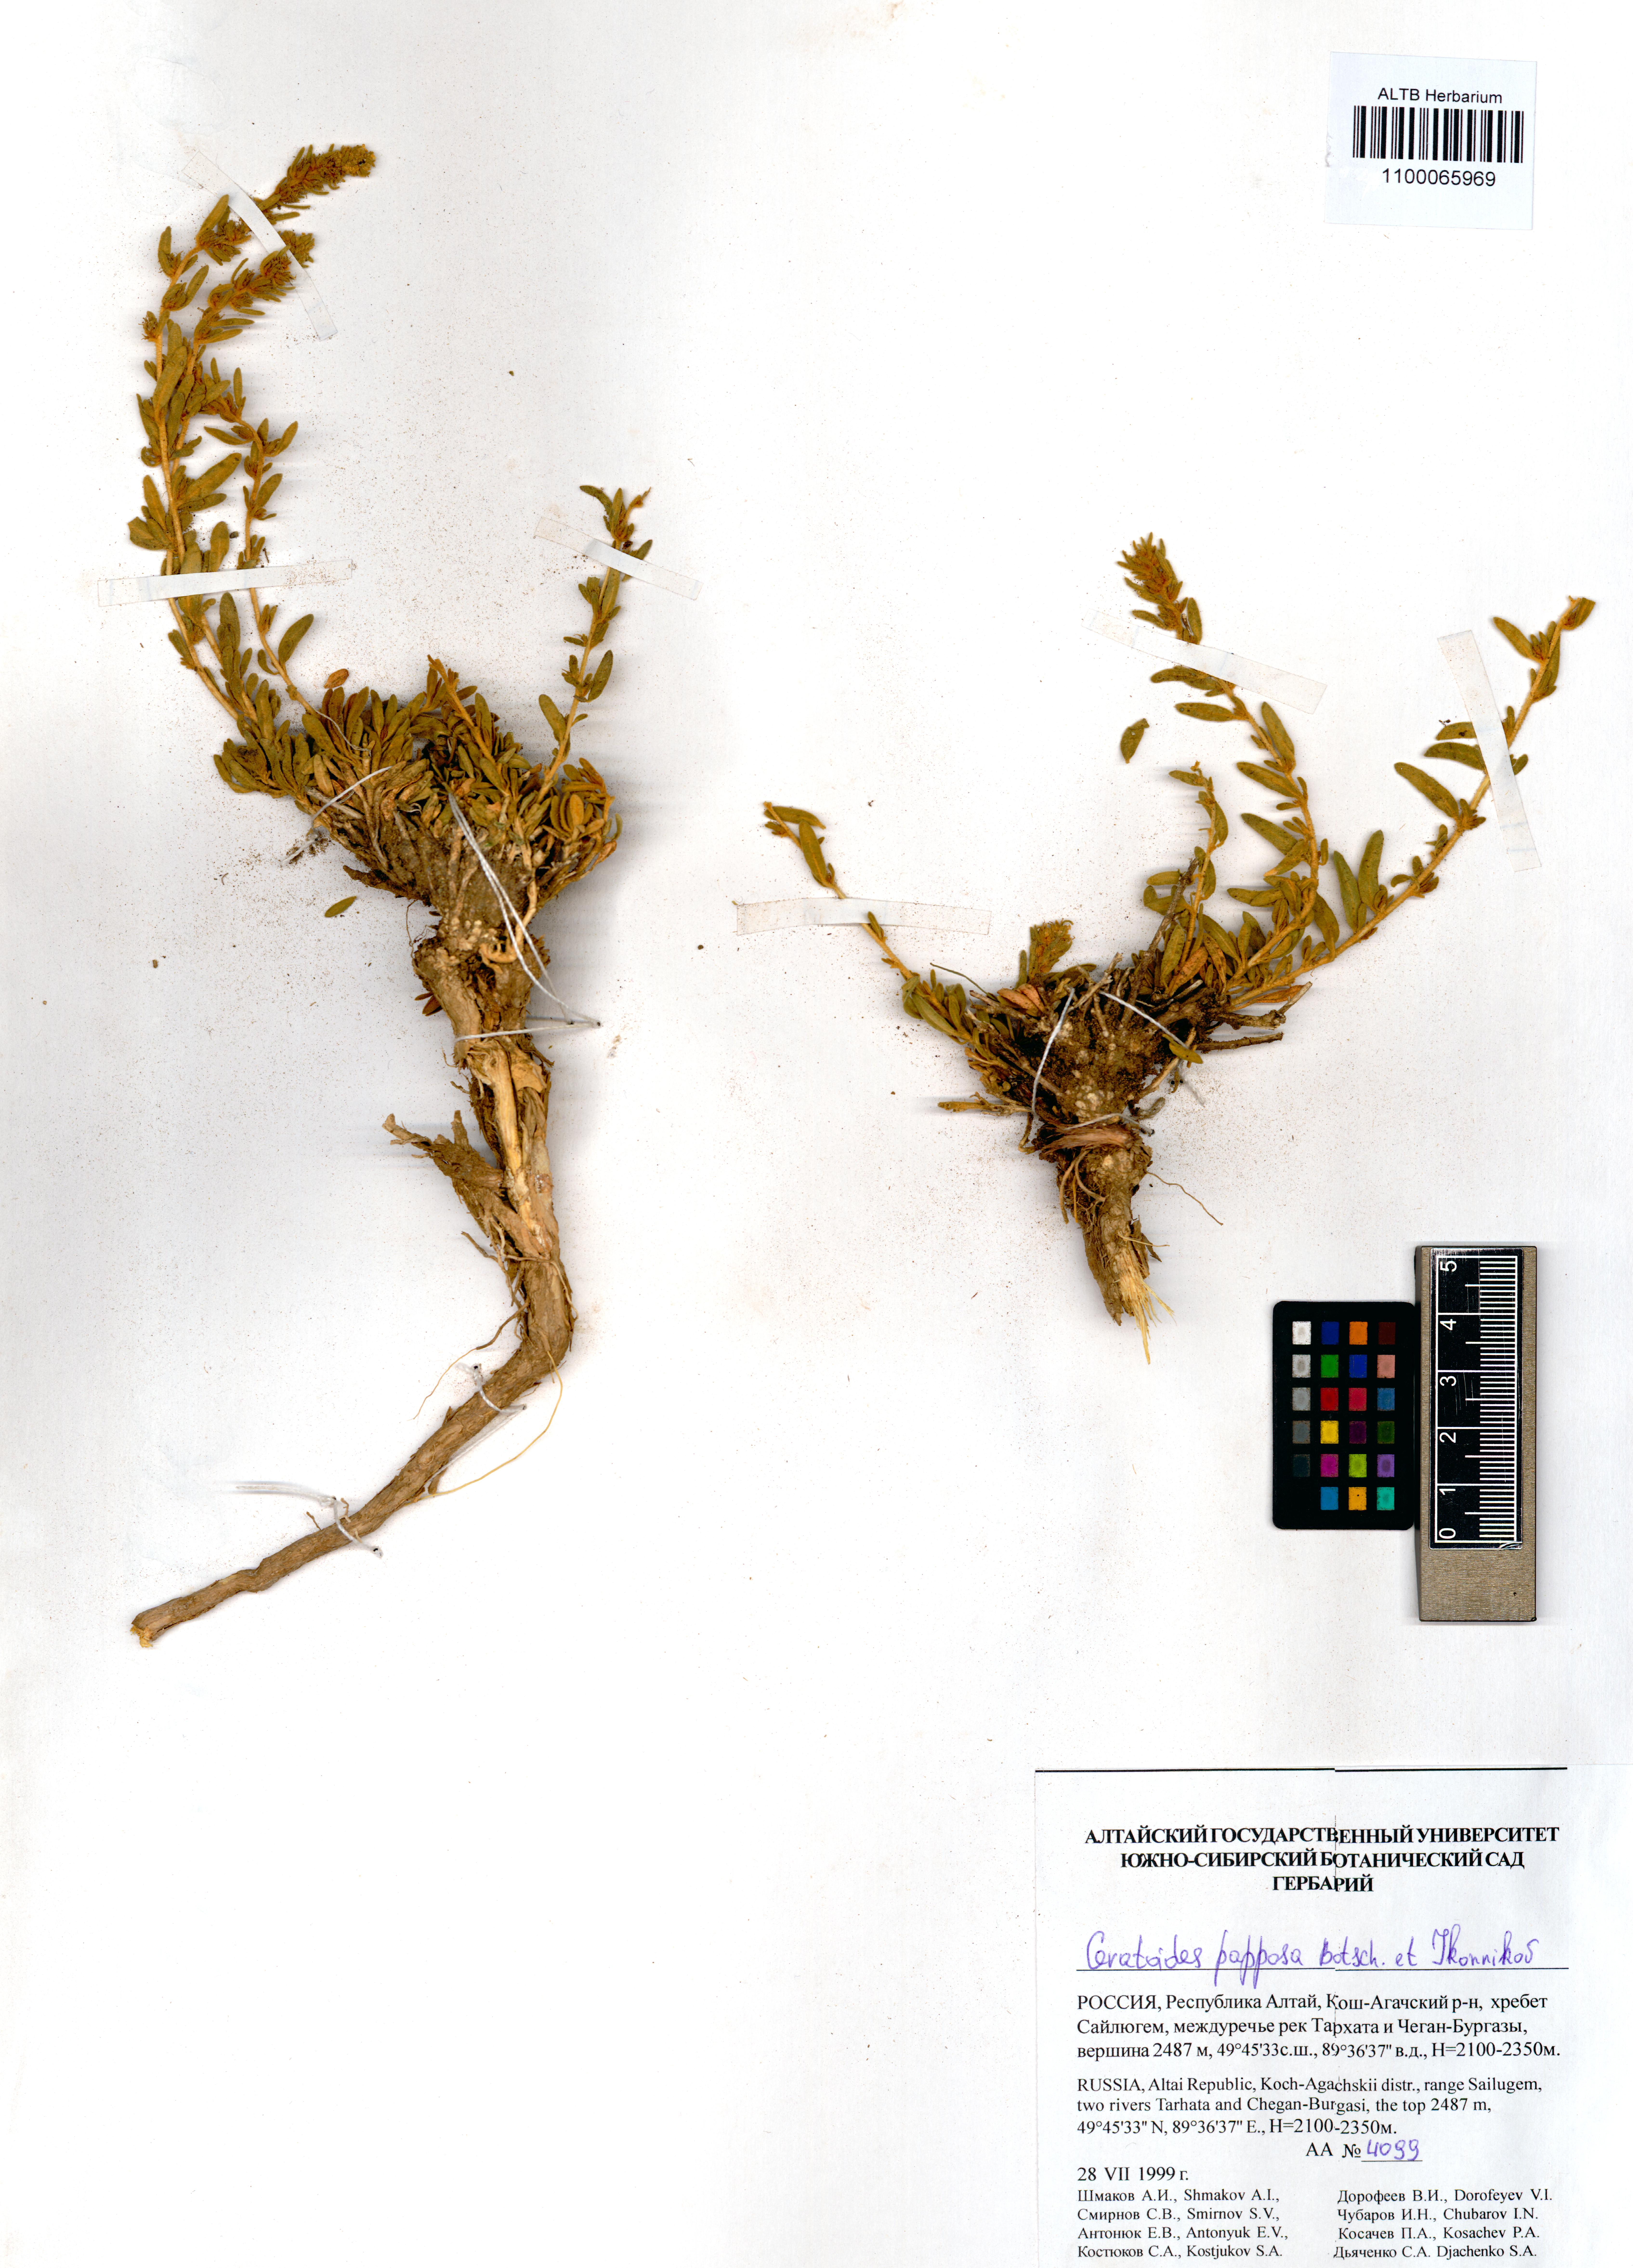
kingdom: Plantae
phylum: Tracheophyta
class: Magnoliopsida
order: Caryophyllales
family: Amaranthaceae
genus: Krascheninnikovia
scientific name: Krascheninnikovia ceratoides
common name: Pamirian winterfat
